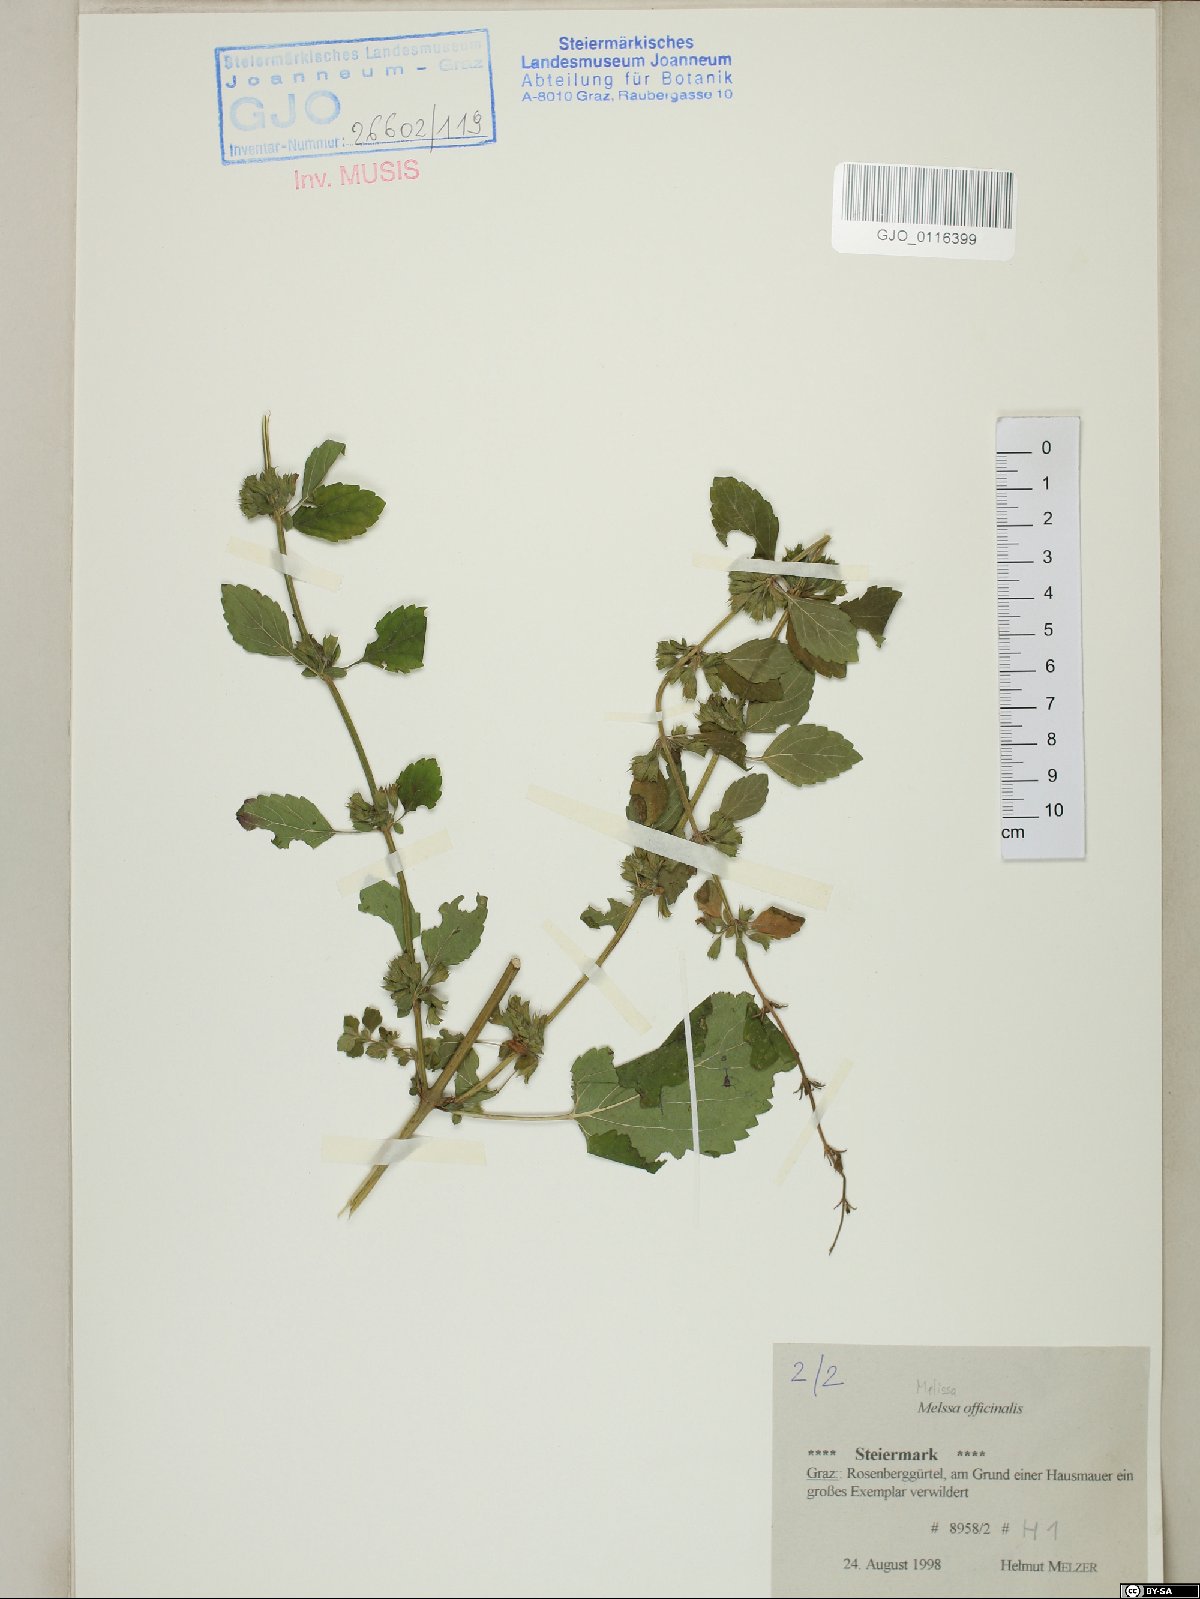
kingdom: Plantae
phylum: Tracheophyta
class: Magnoliopsida
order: Lamiales
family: Lamiaceae
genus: Melissa
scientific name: Melissa officinalis
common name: Balm
